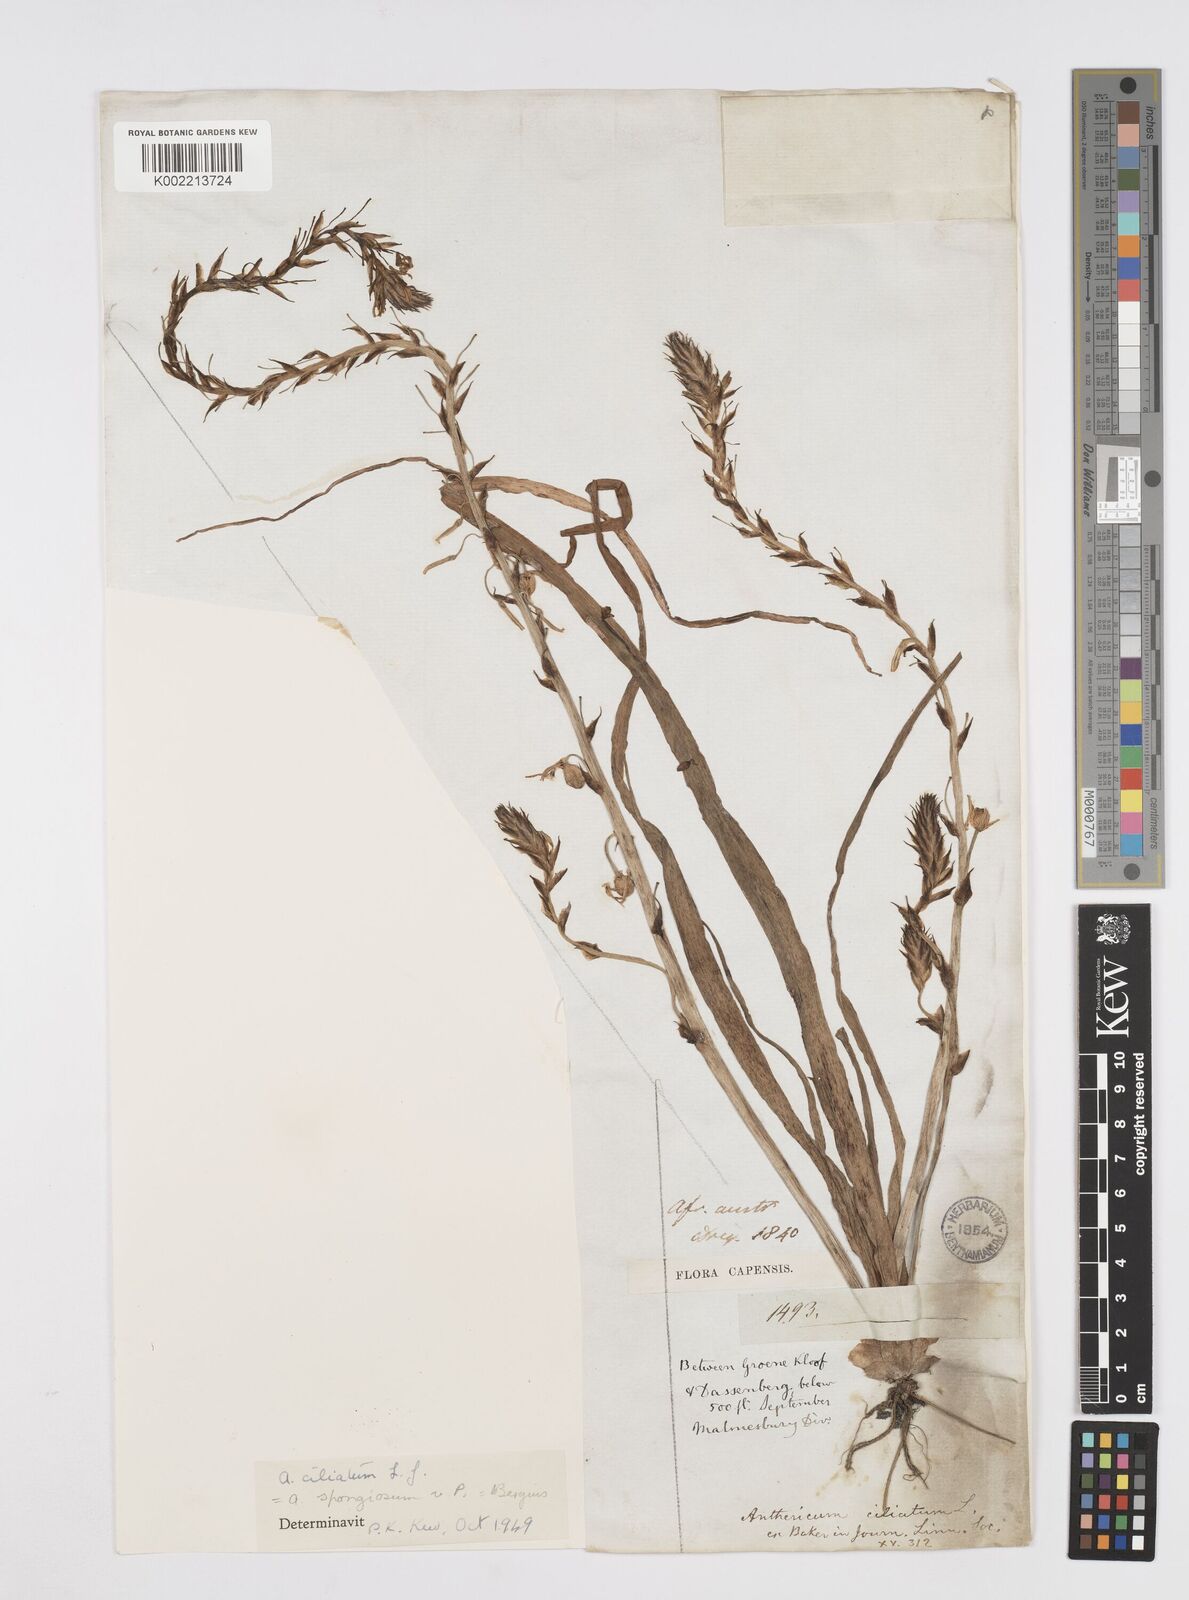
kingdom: Plantae
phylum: Tracheophyta
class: Liliopsida
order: Asparagales
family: Asphodelaceae
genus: Trachyandra
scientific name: Trachyandra ciliata
